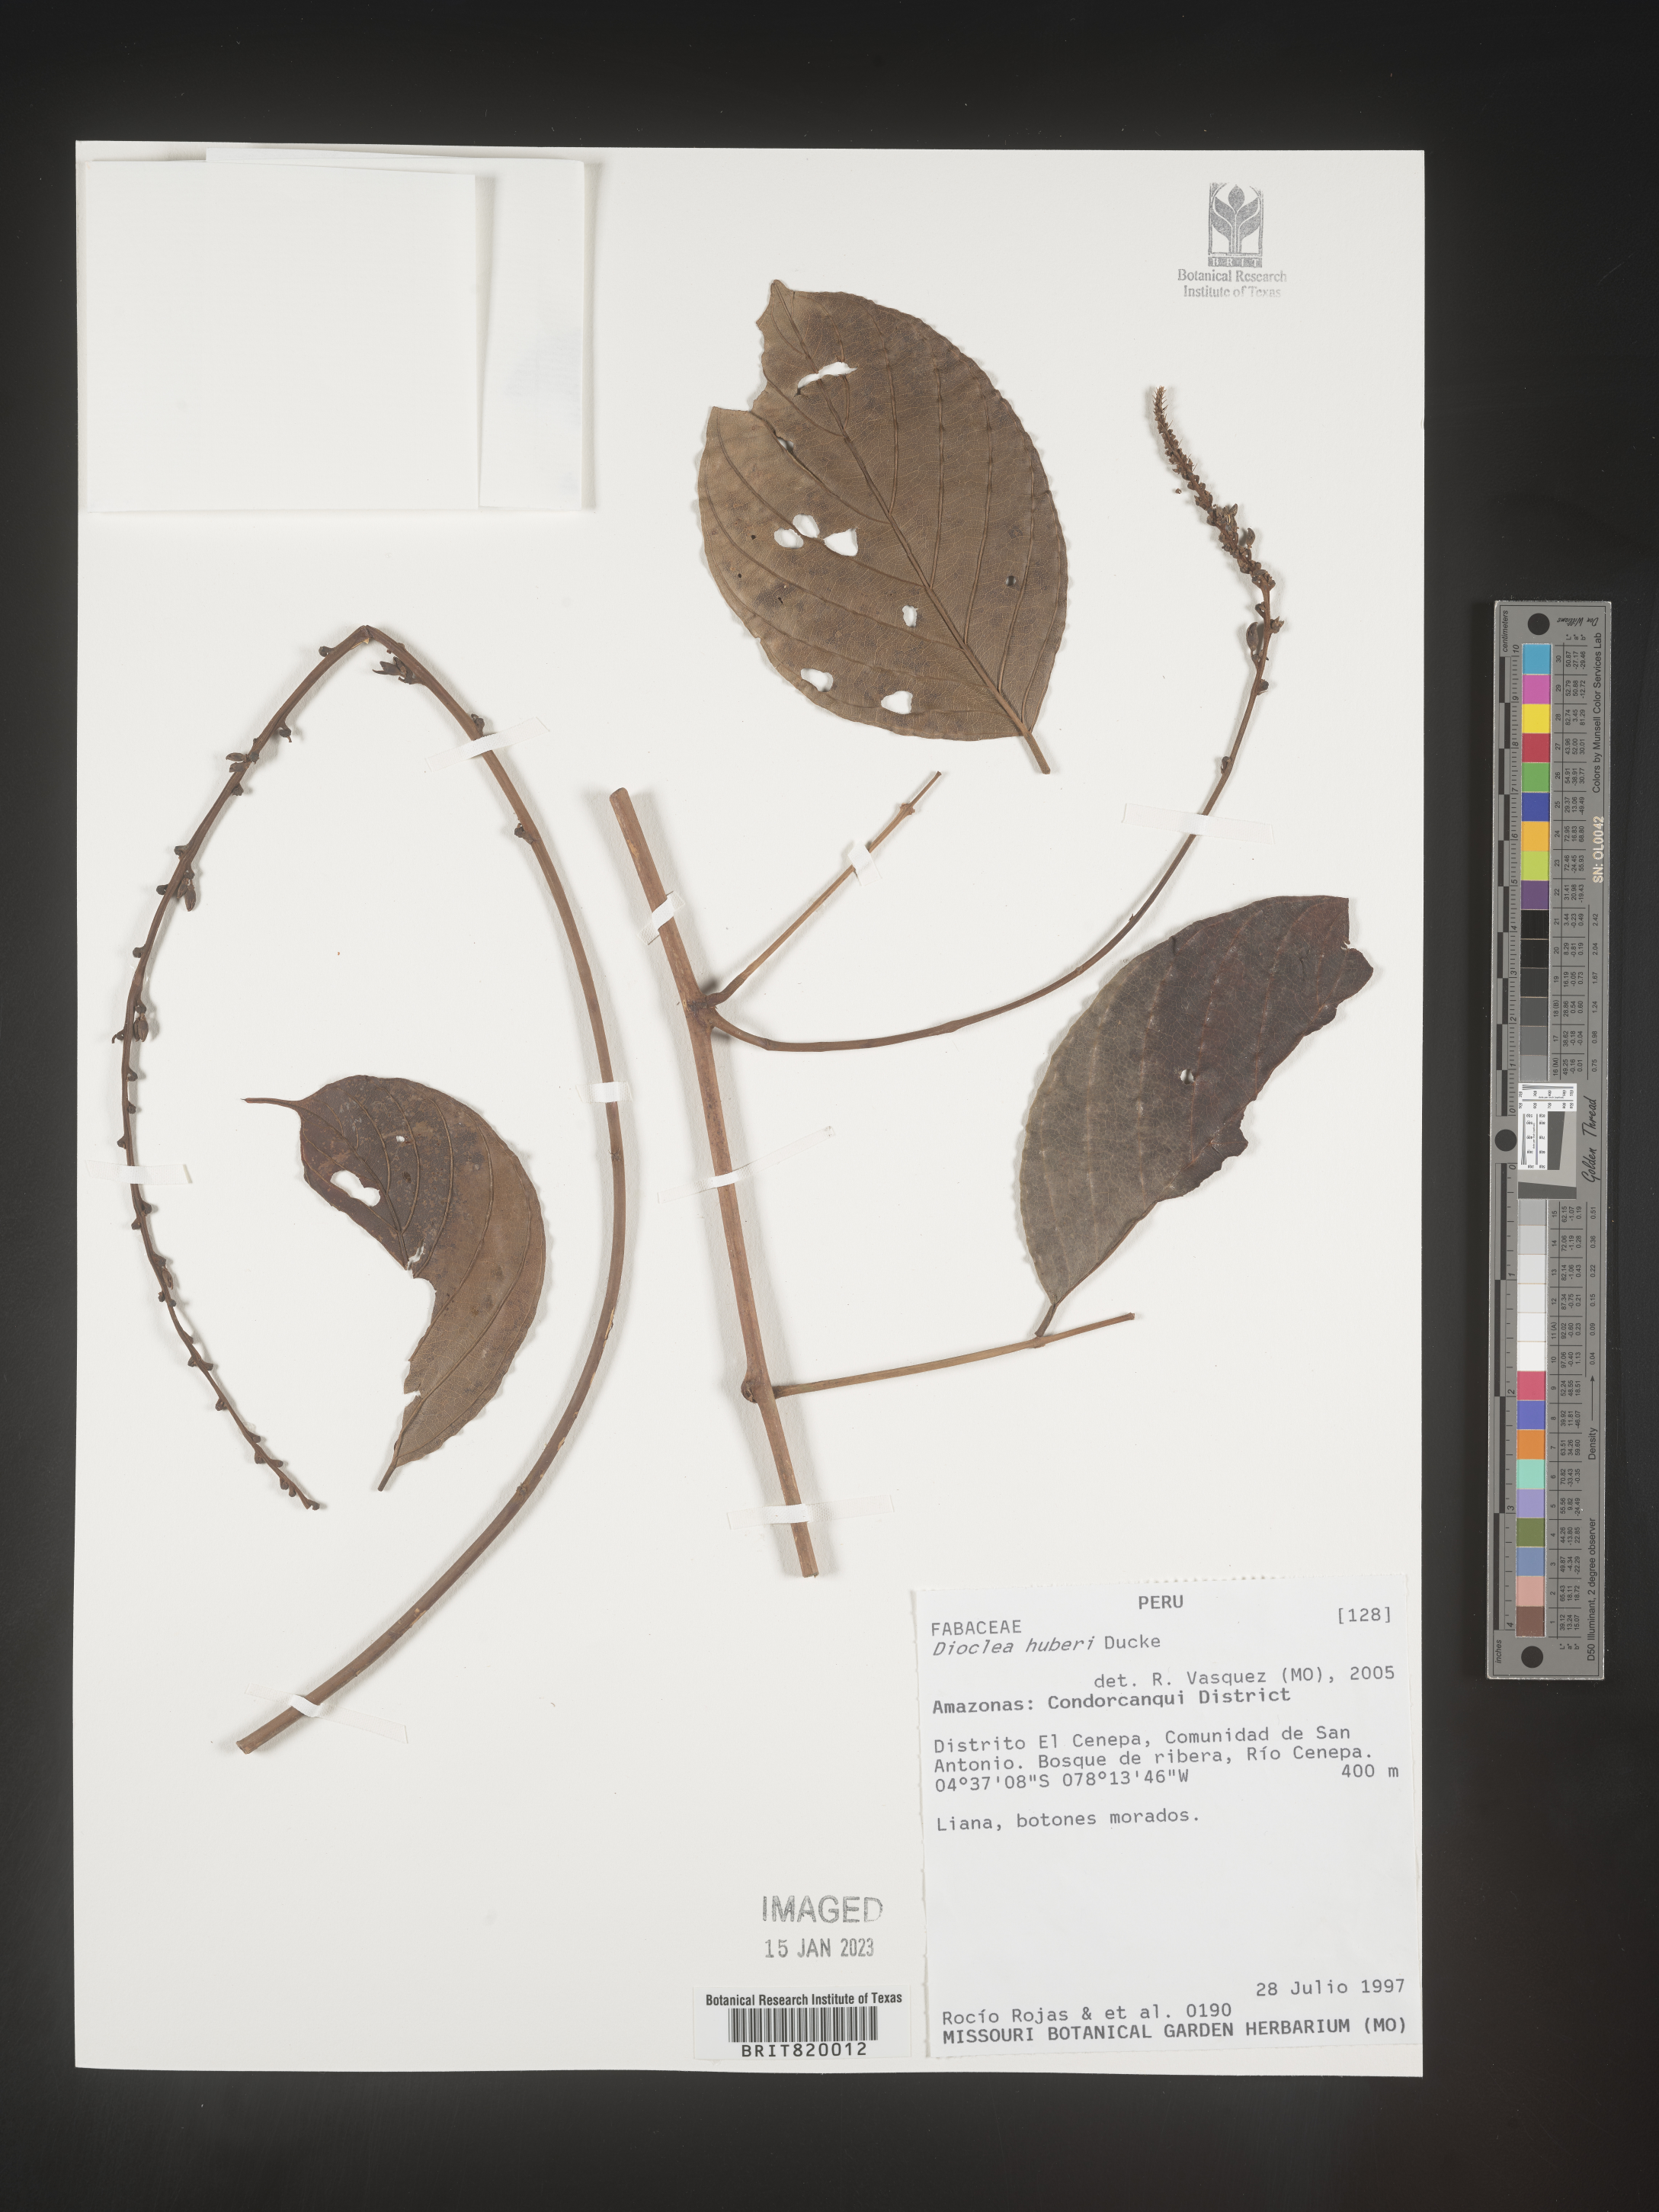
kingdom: Plantae
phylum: Tracheophyta
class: Magnoliopsida
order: Fabales
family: Fabaceae
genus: Dioclea
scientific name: Dioclea
